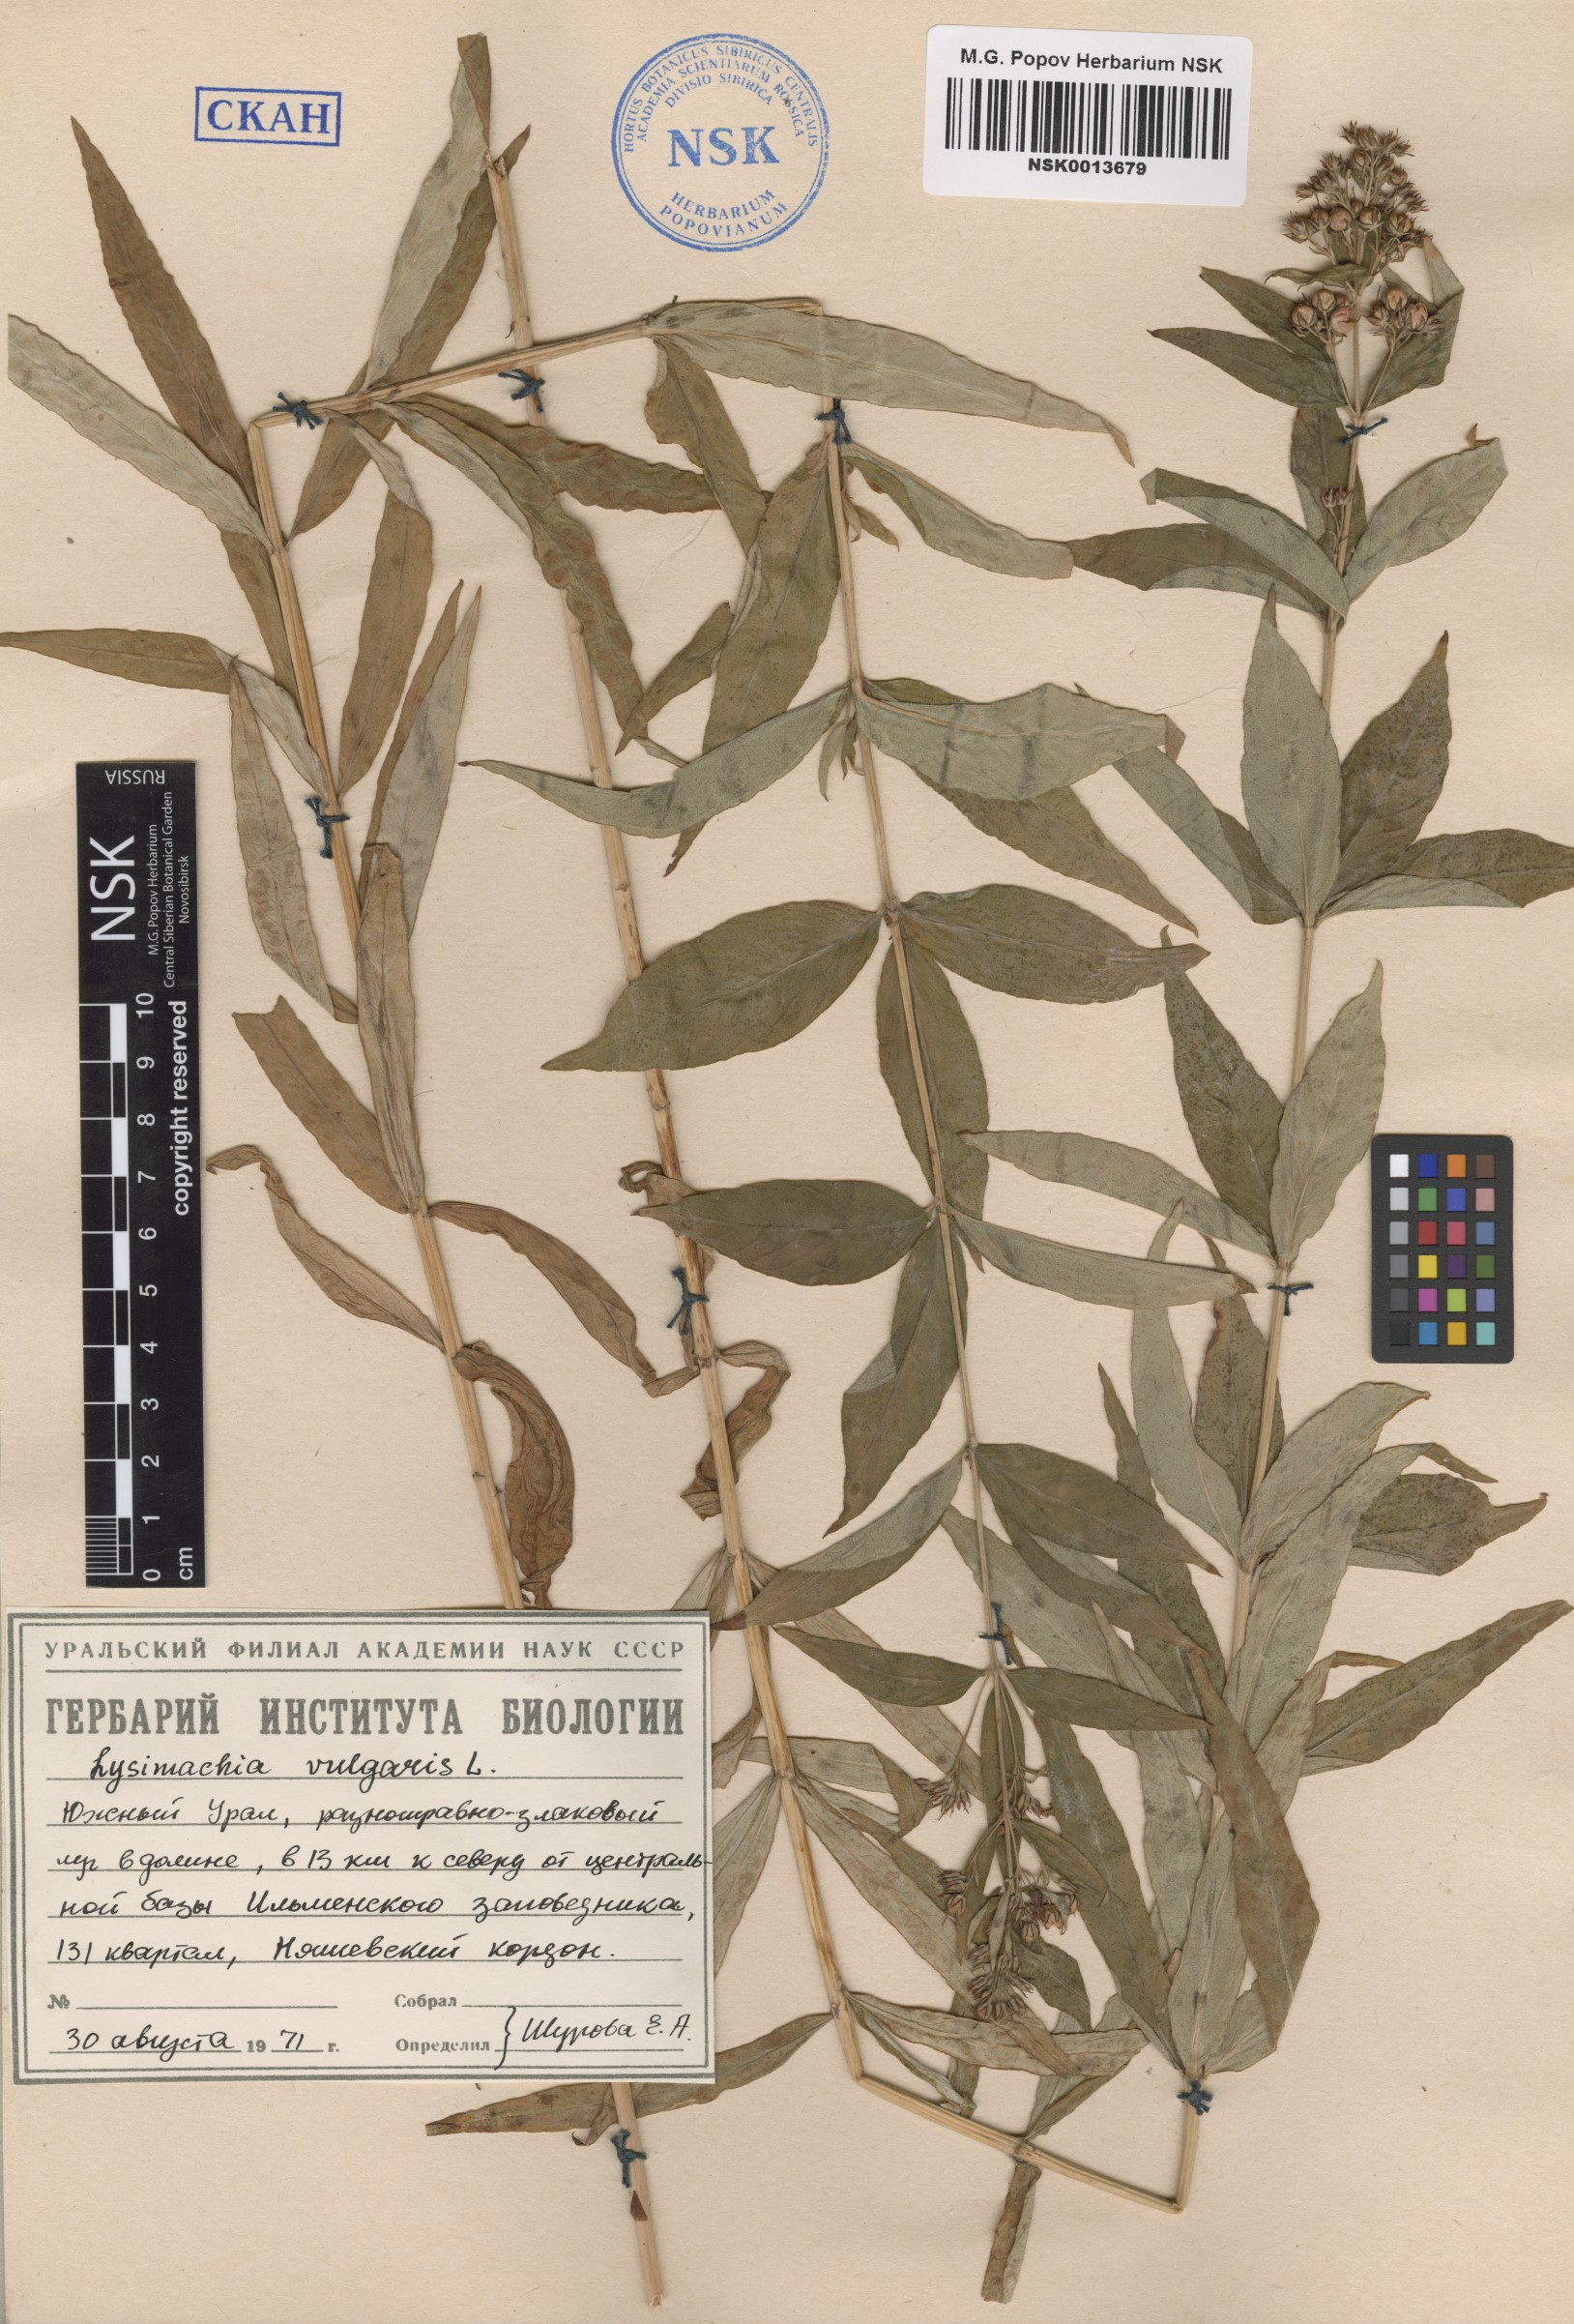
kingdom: Plantae
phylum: Tracheophyta
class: Magnoliopsida
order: Ericales
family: Primulaceae
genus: Lysimachia
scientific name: Lysimachia vulgaris
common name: Yellow loosestrife
